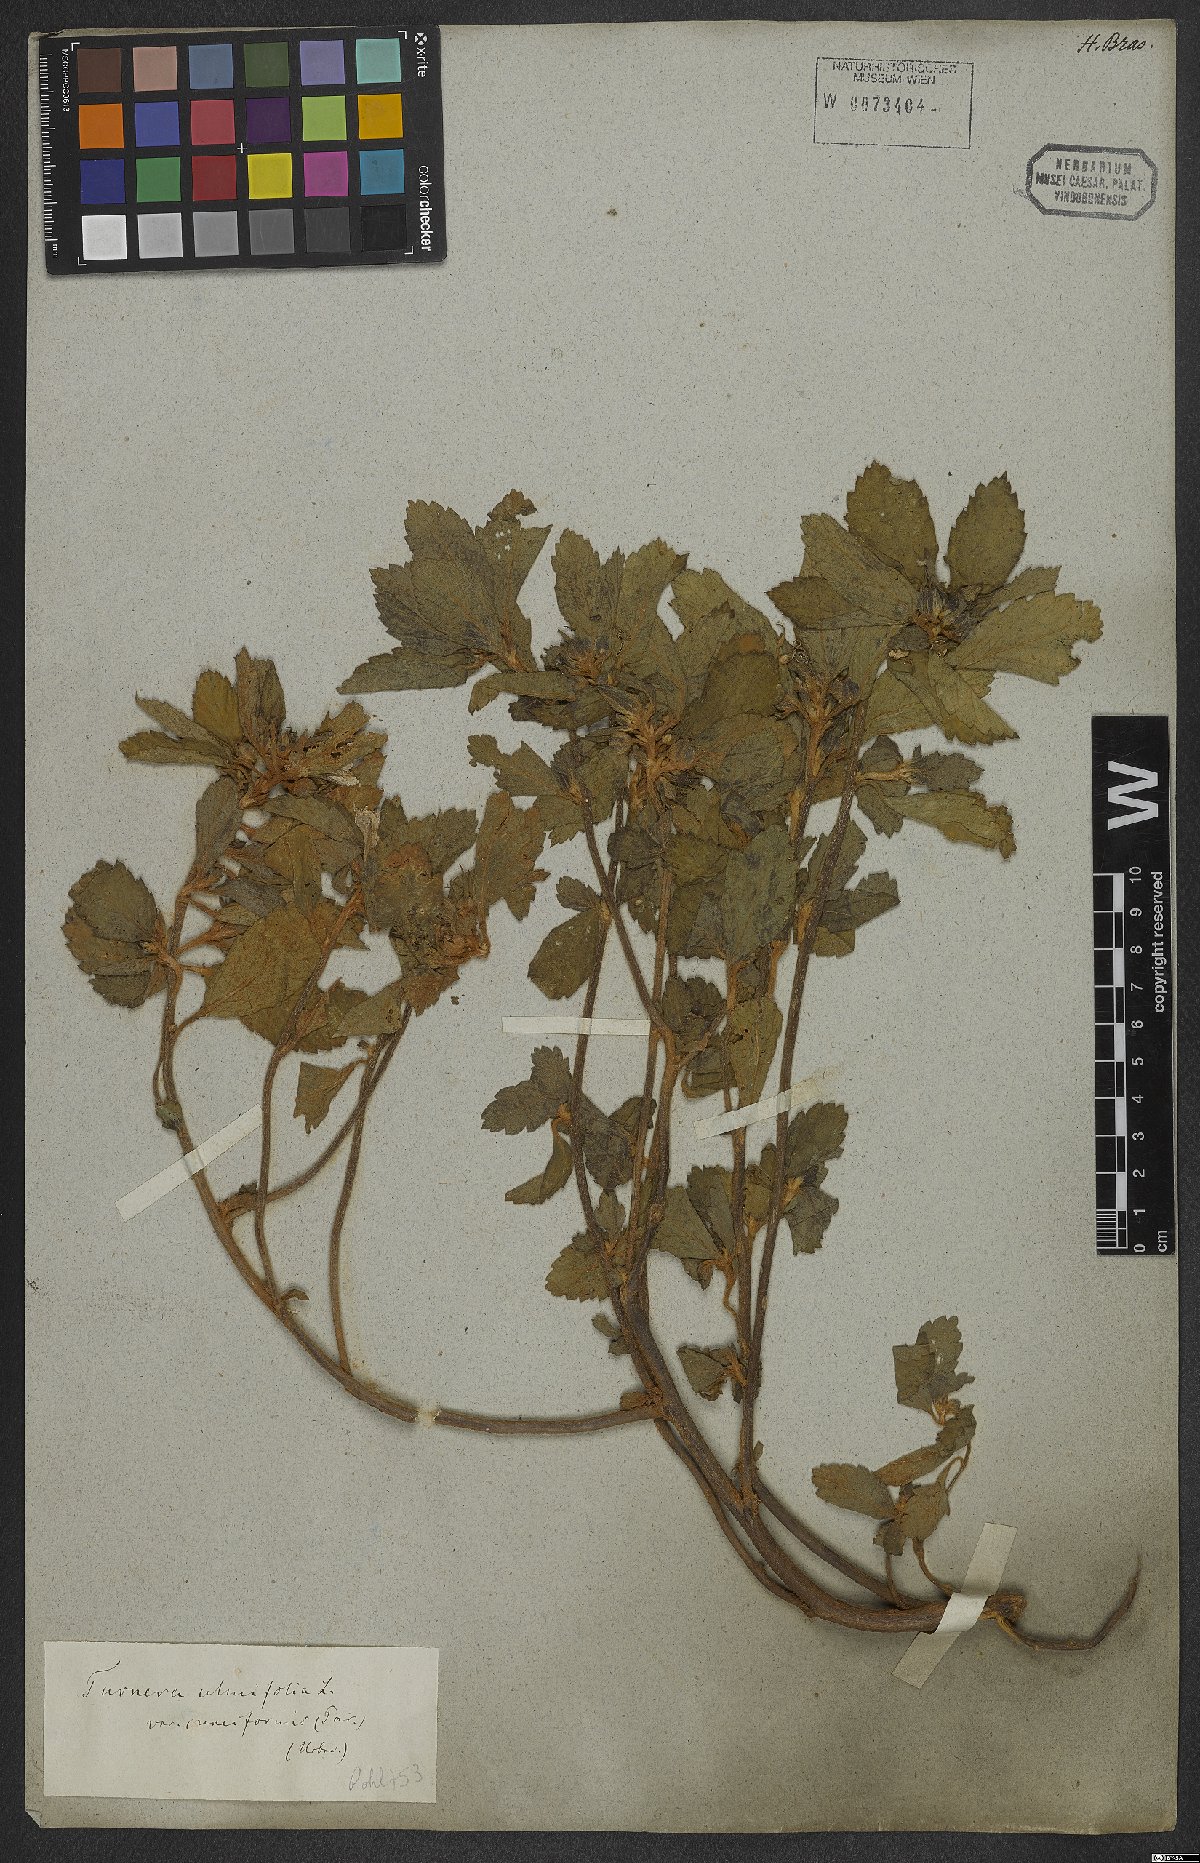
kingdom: Plantae
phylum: Tracheophyta
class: Magnoliopsida
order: Malpighiales
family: Turneraceae
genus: Turnera
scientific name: Turnera cuneiformis
